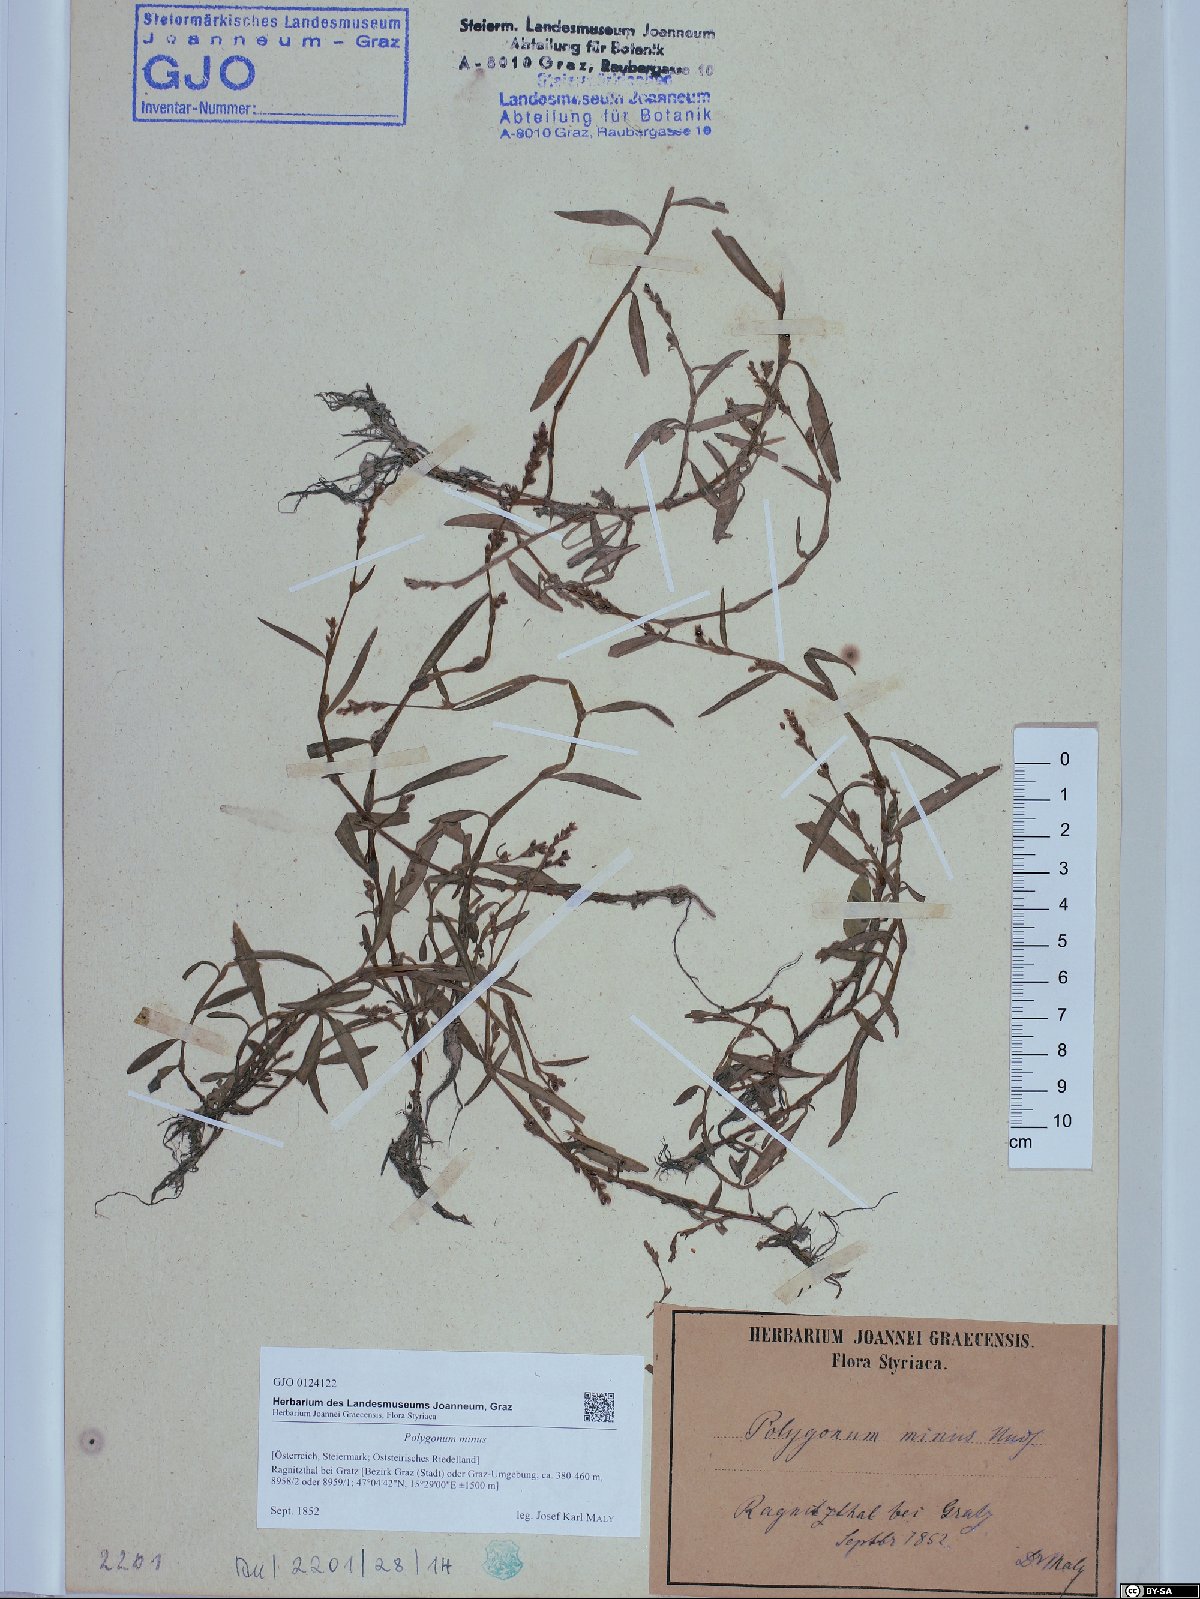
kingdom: Plantae
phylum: Tracheophyta
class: Magnoliopsida
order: Caryophyllales
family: Polygonaceae
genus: Persicaria
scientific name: Persicaria minor
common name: Small water-pepper
